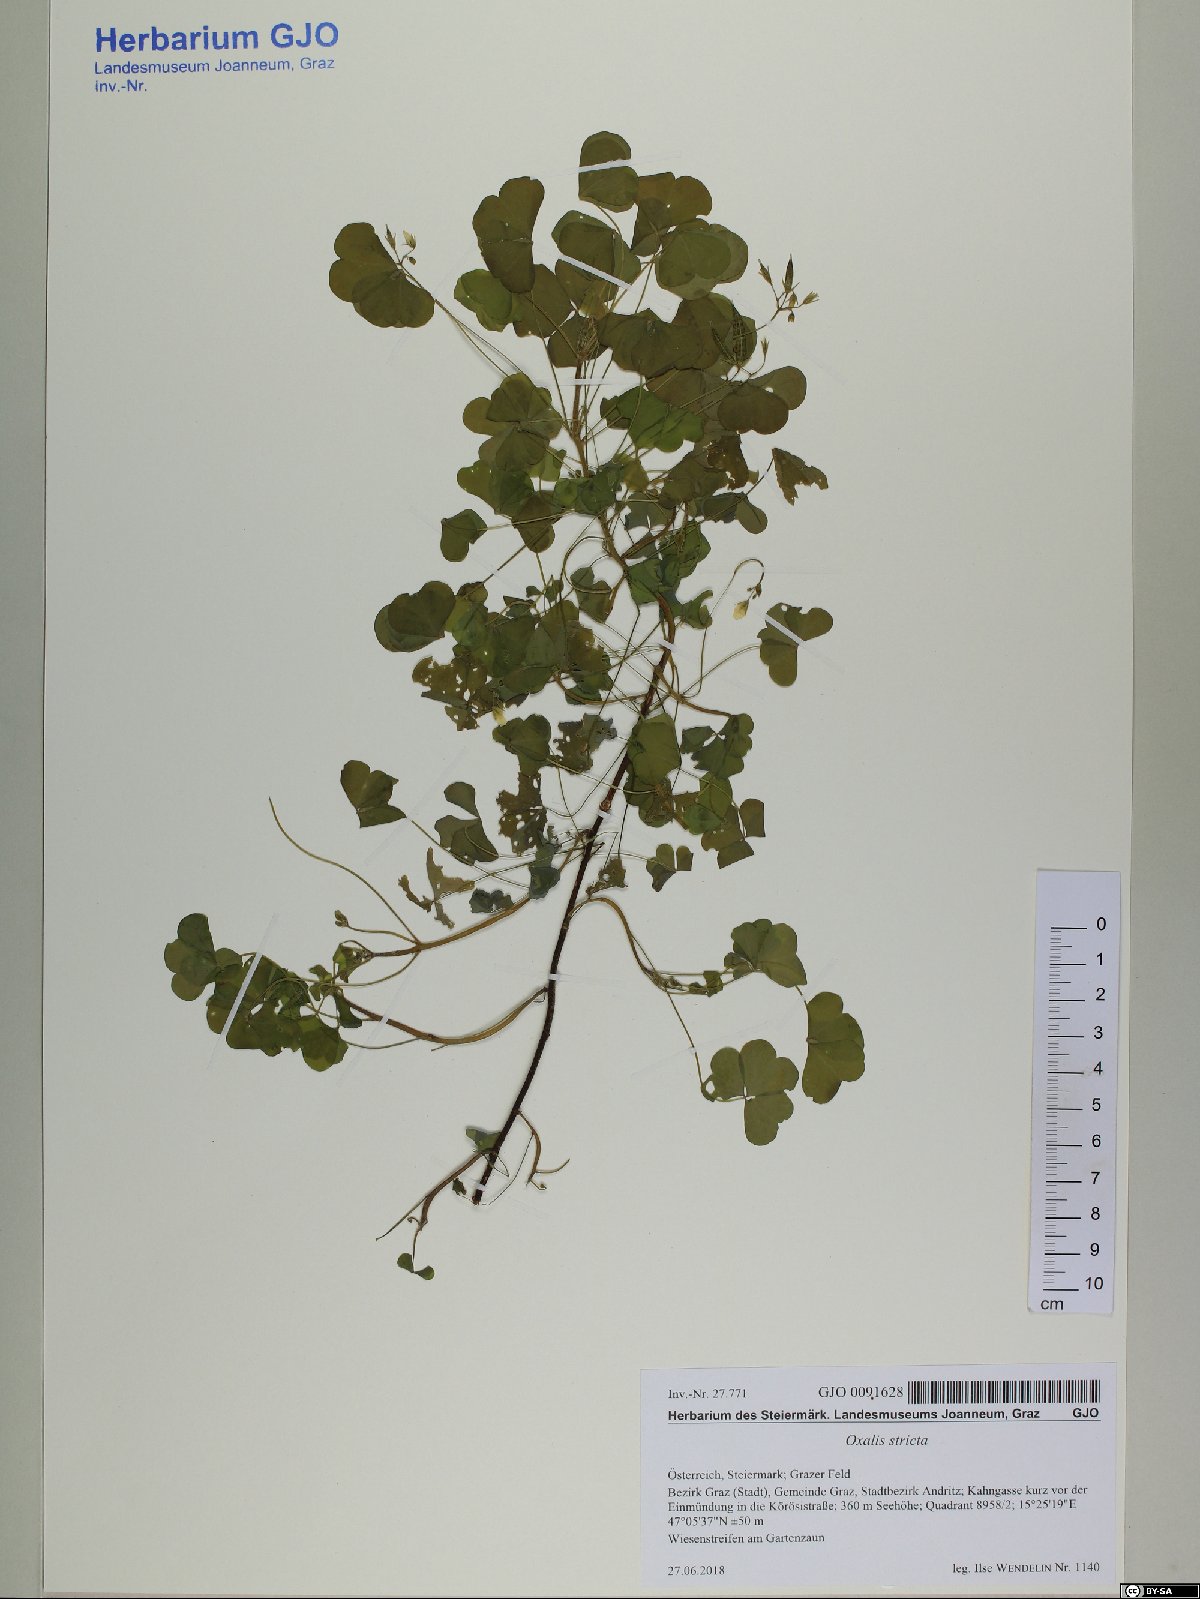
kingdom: Plantae
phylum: Tracheophyta
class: Magnoliopsida
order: Oxalidales
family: Oxalidaceae
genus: Oxalis
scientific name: Oxalis stricta
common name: Upright yellow-sorrel
